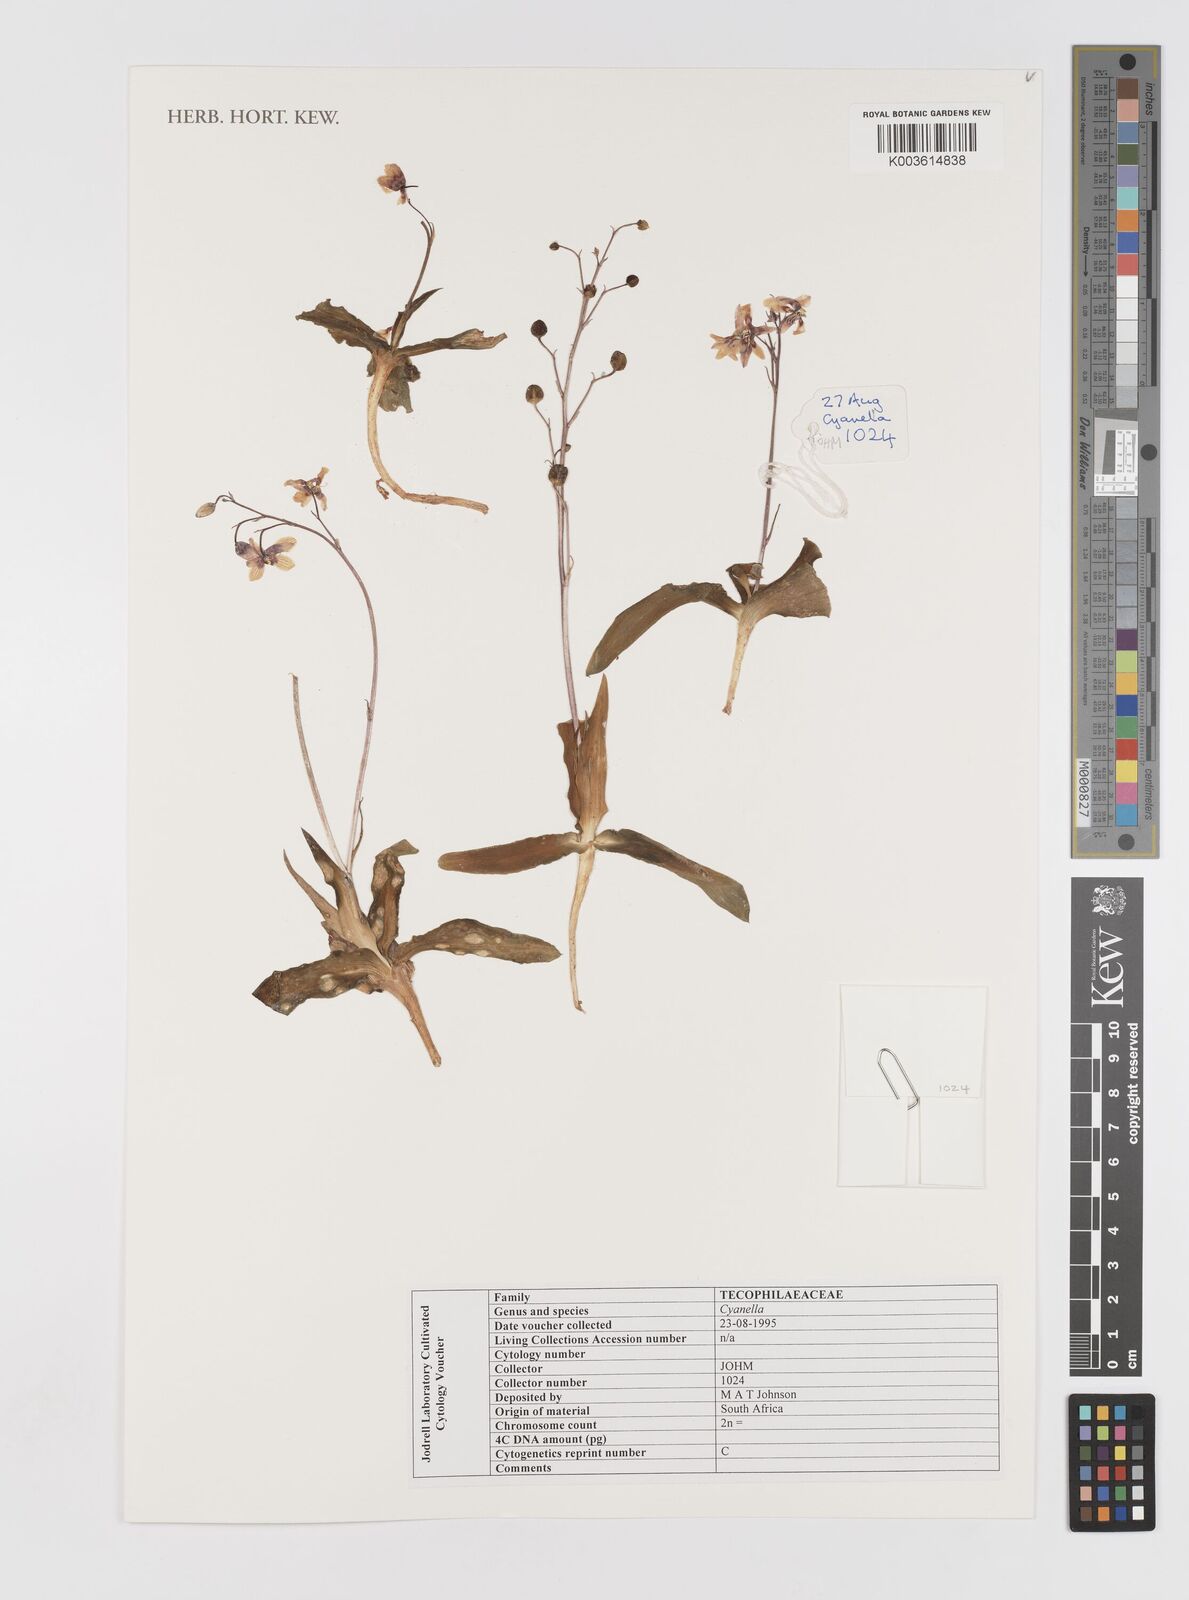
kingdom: Plantae
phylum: Tracheophyta
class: Liliopsida
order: Asparagales
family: Tecophilaeaceae
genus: Cyanella
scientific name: Cyanella
